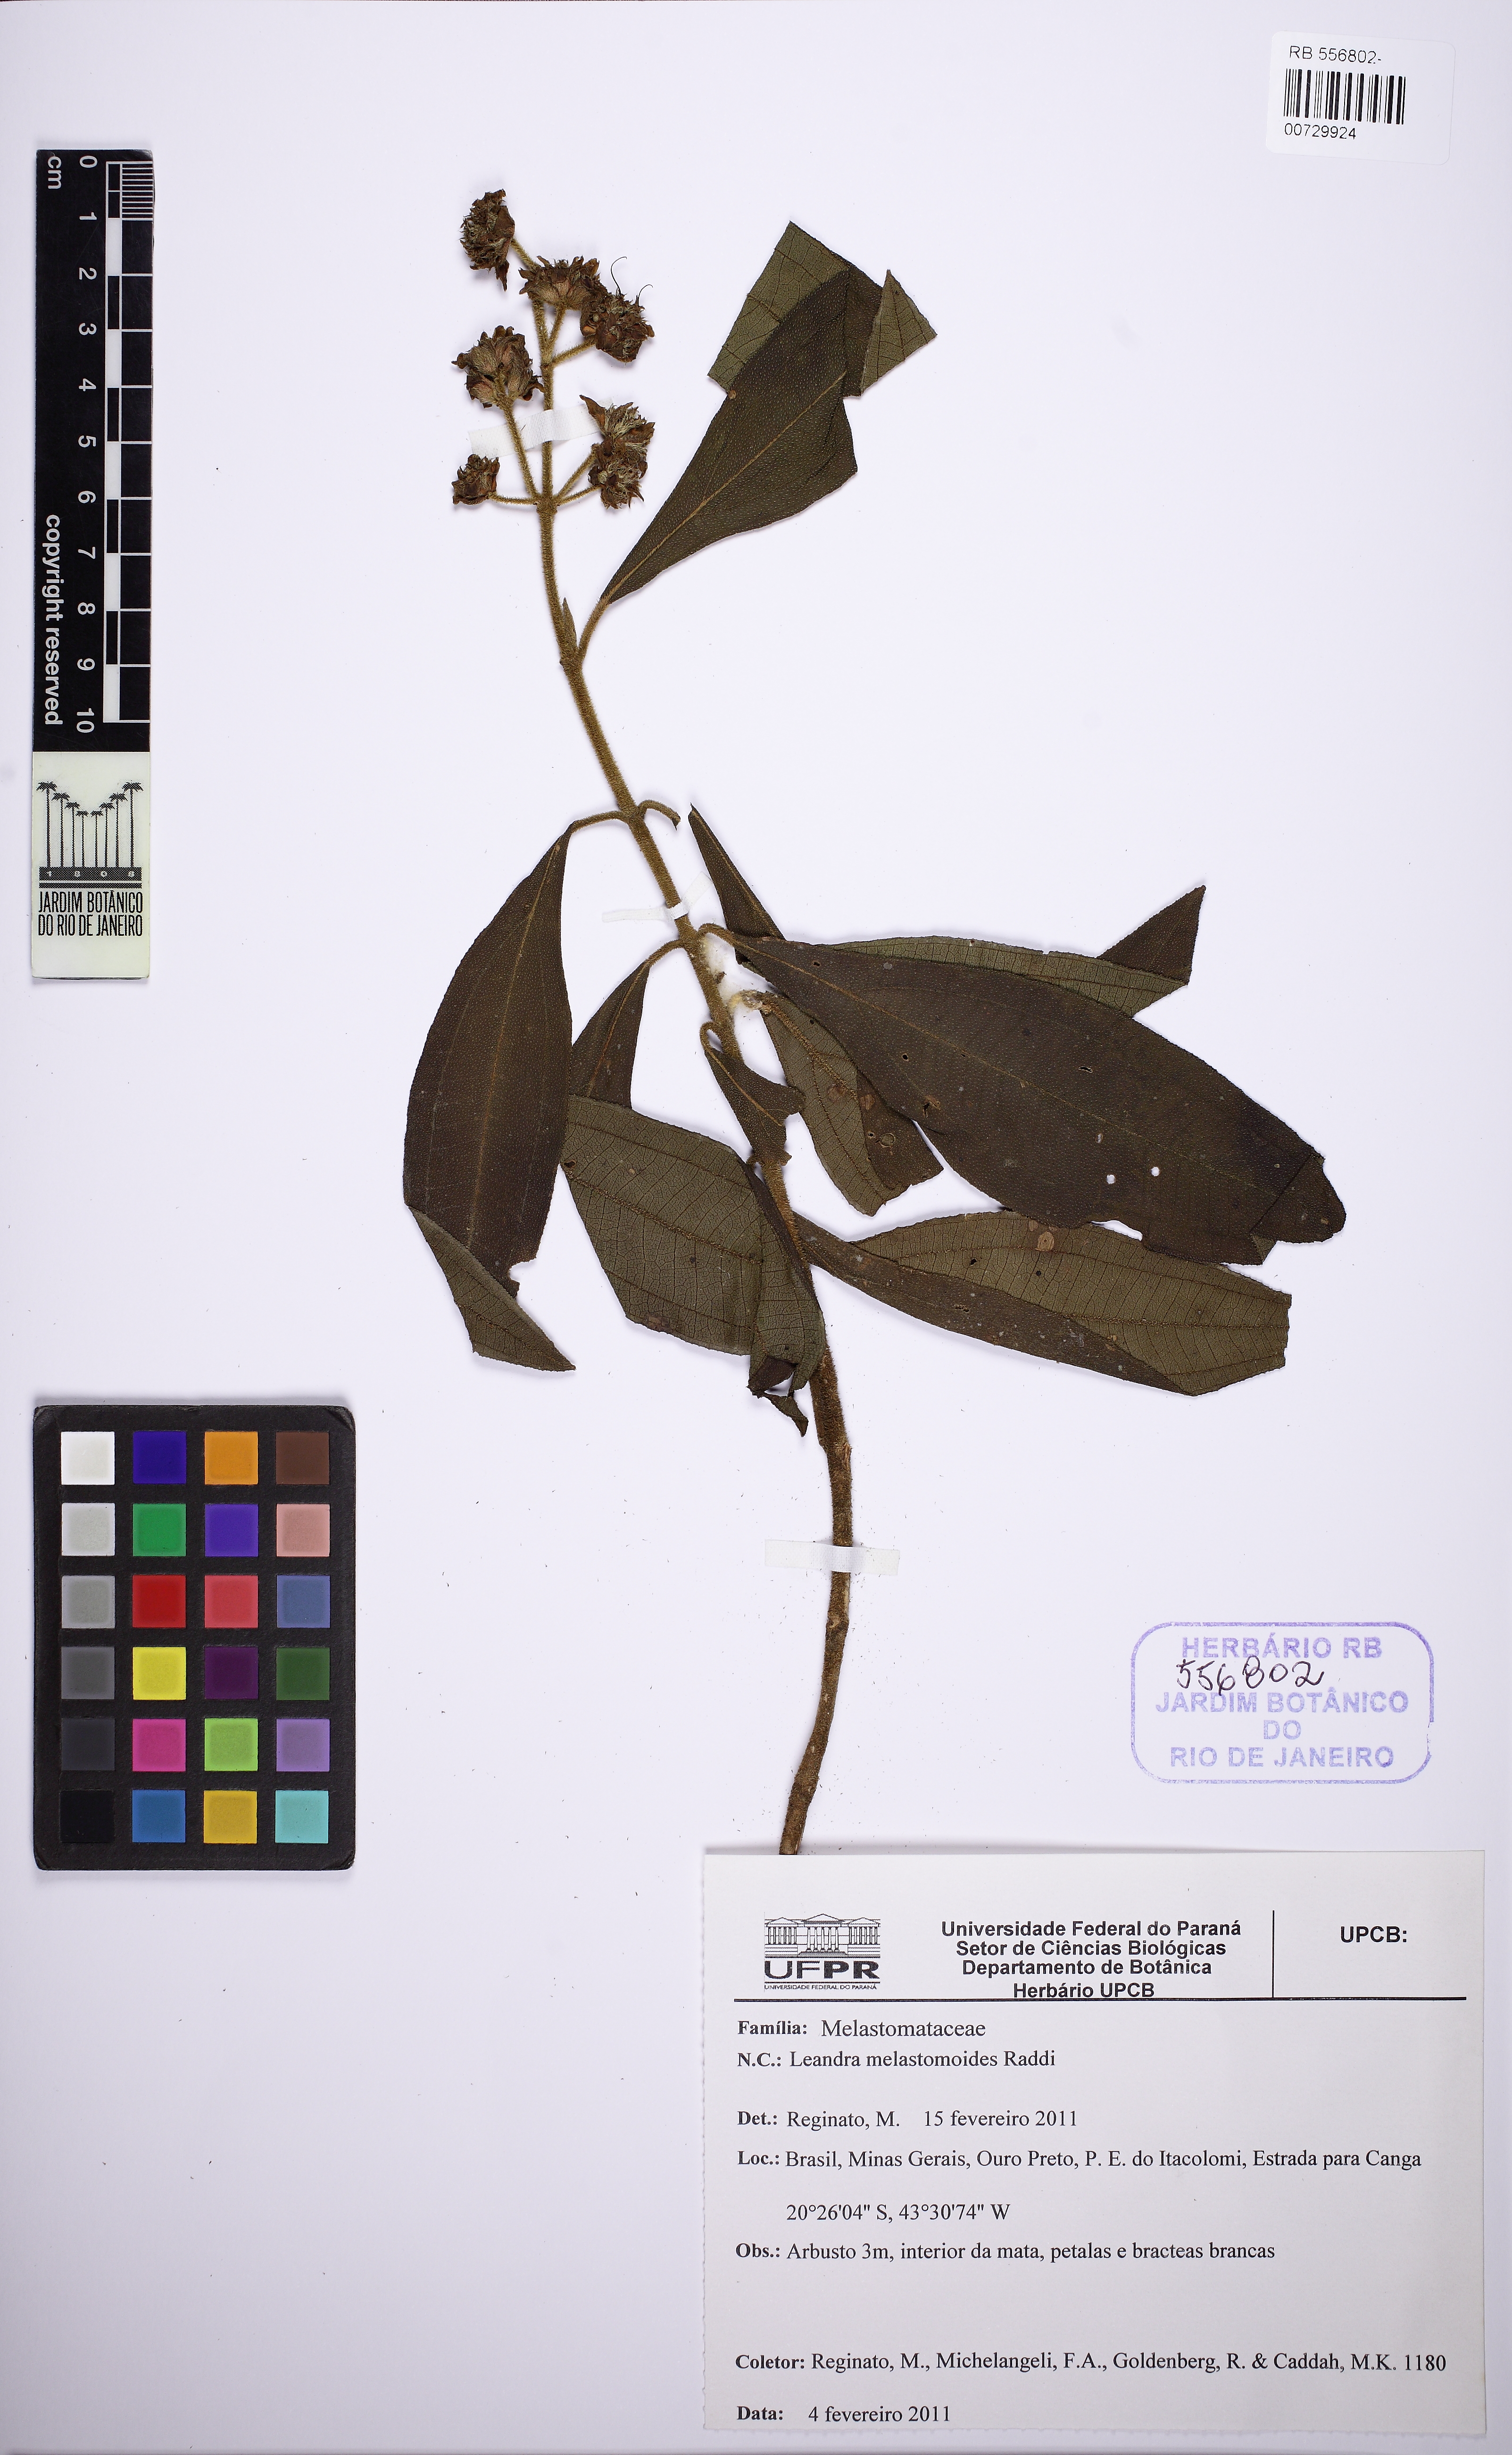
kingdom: Plantae
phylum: Tracheophyta
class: Magnoliopsida
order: Myrtales
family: Melastomataceae
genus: Miconia
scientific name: Miconia melastomoides
